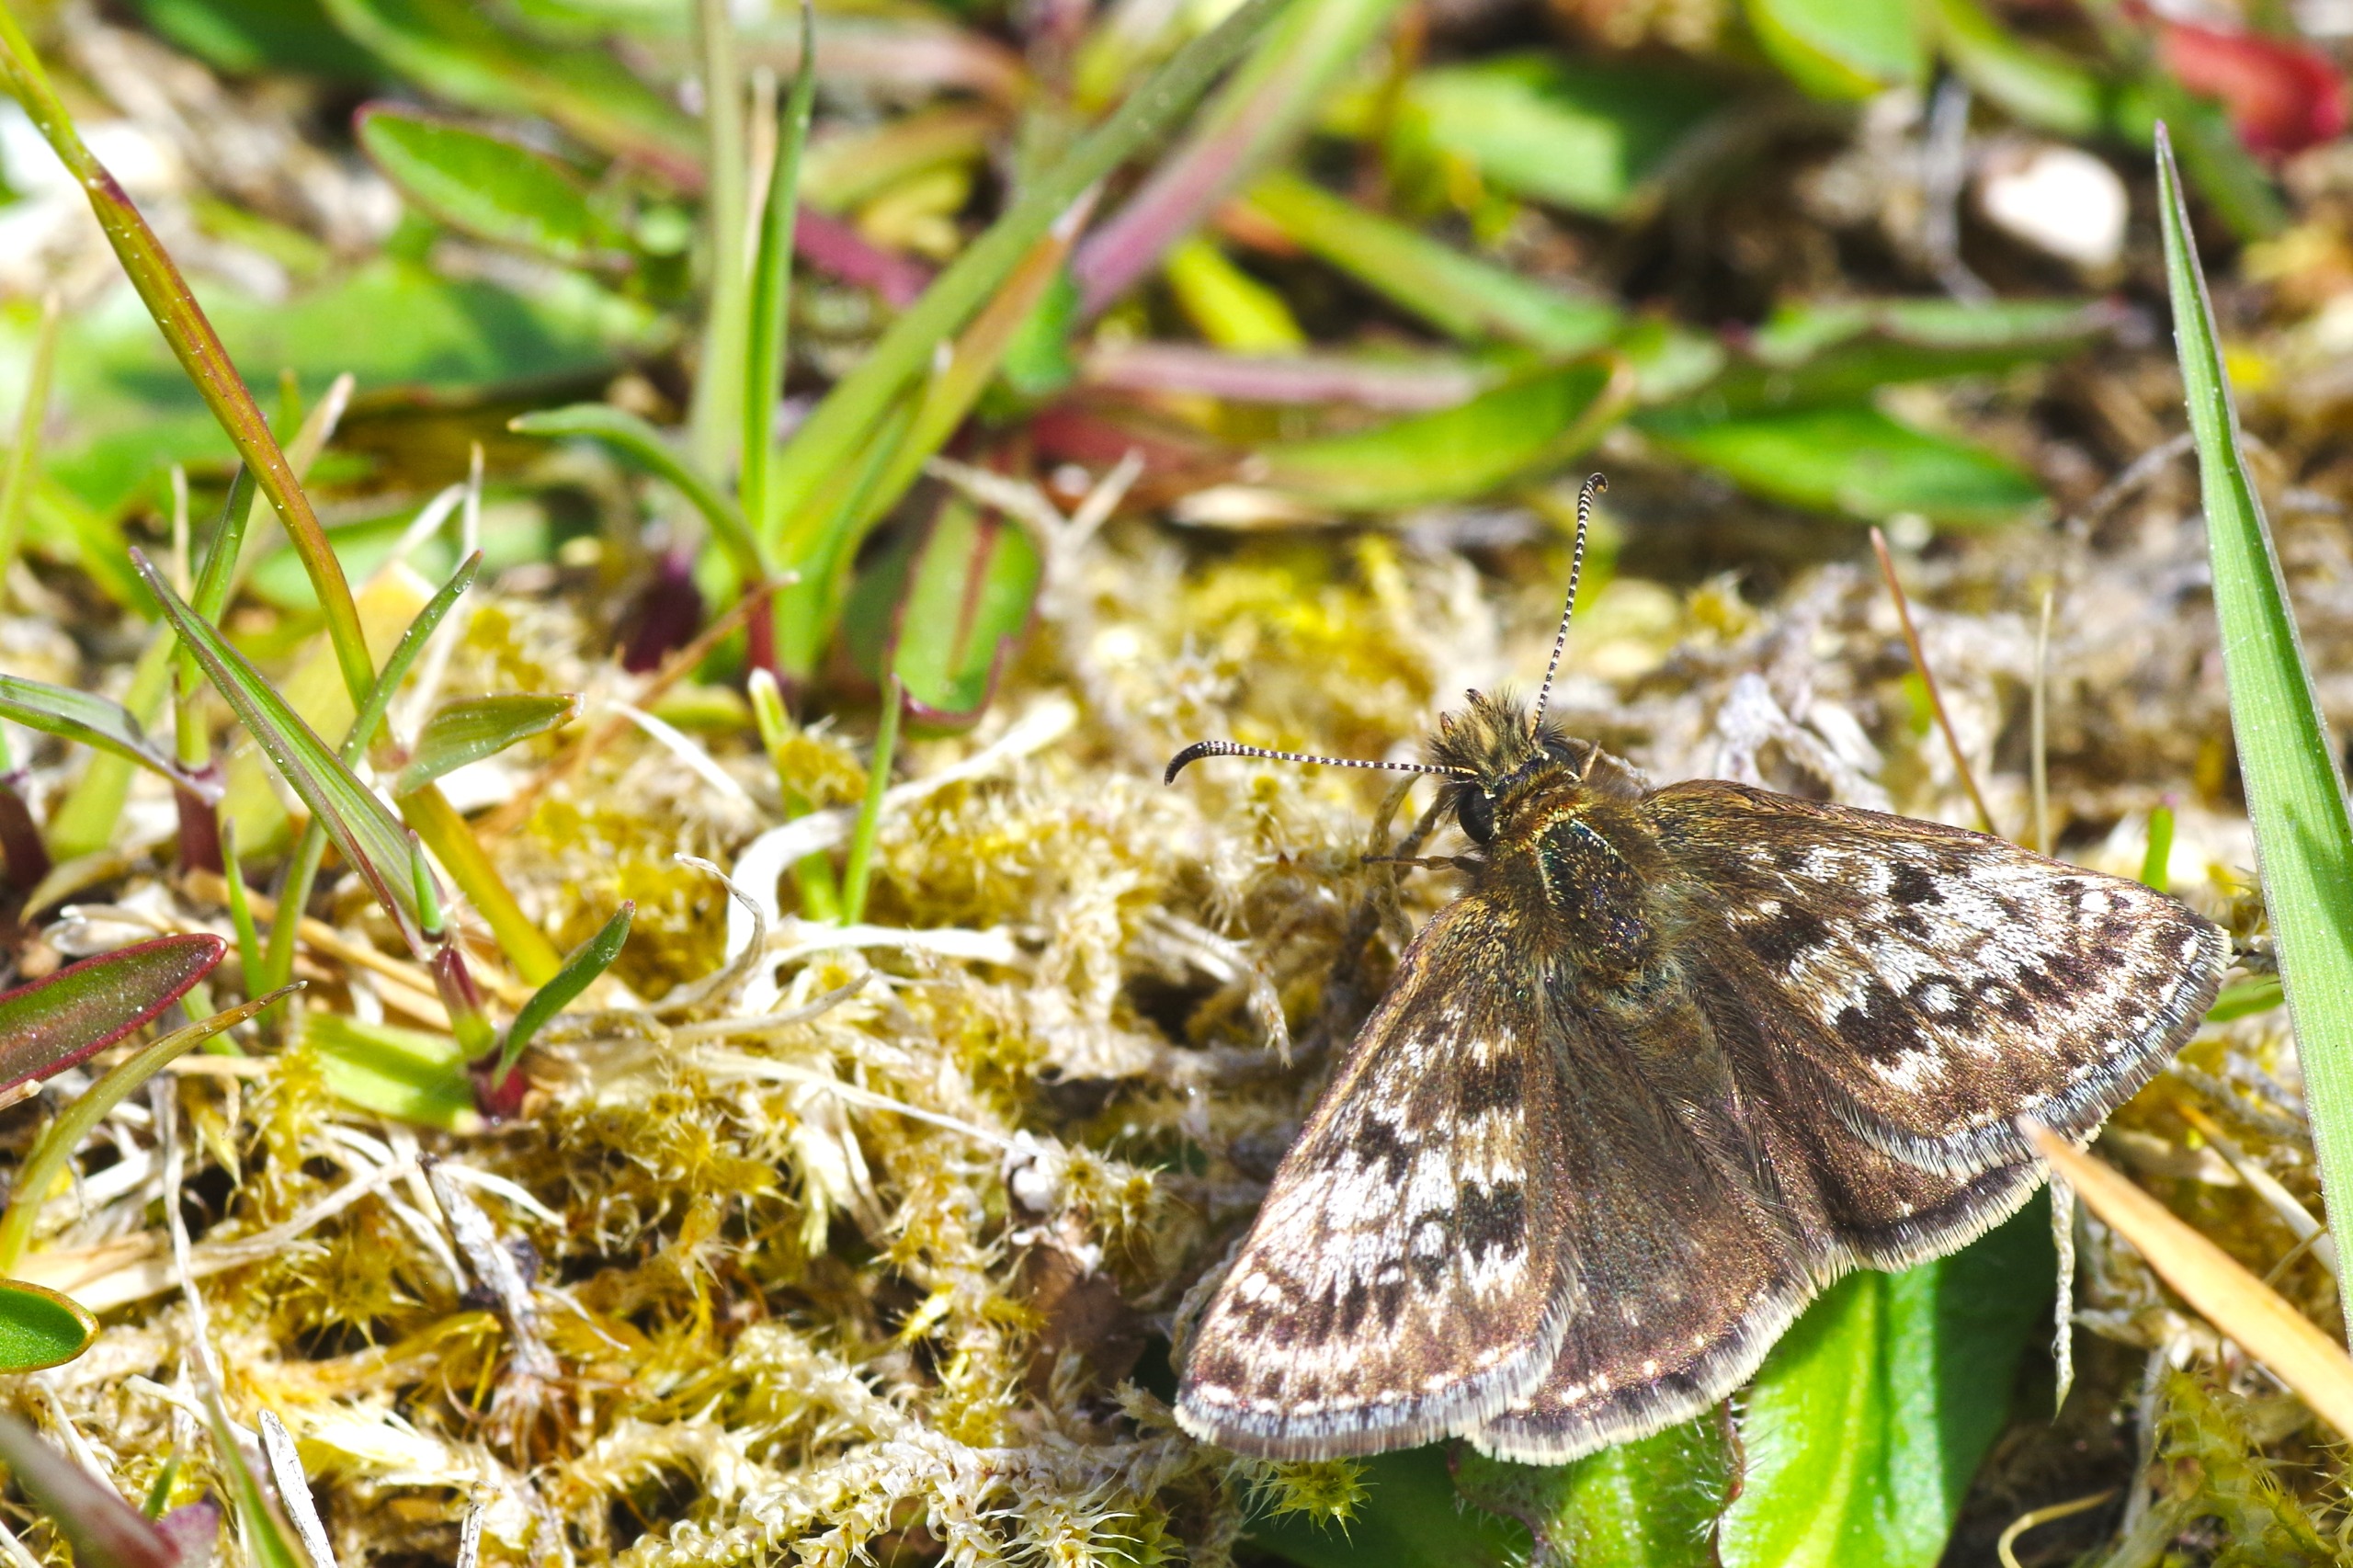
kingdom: Animalia
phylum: Arthropoda
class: Insecta
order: Lepidoptera
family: Hesperiidae
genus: Erynnis
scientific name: Erynnis tages
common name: Gråbåndet bredpande
